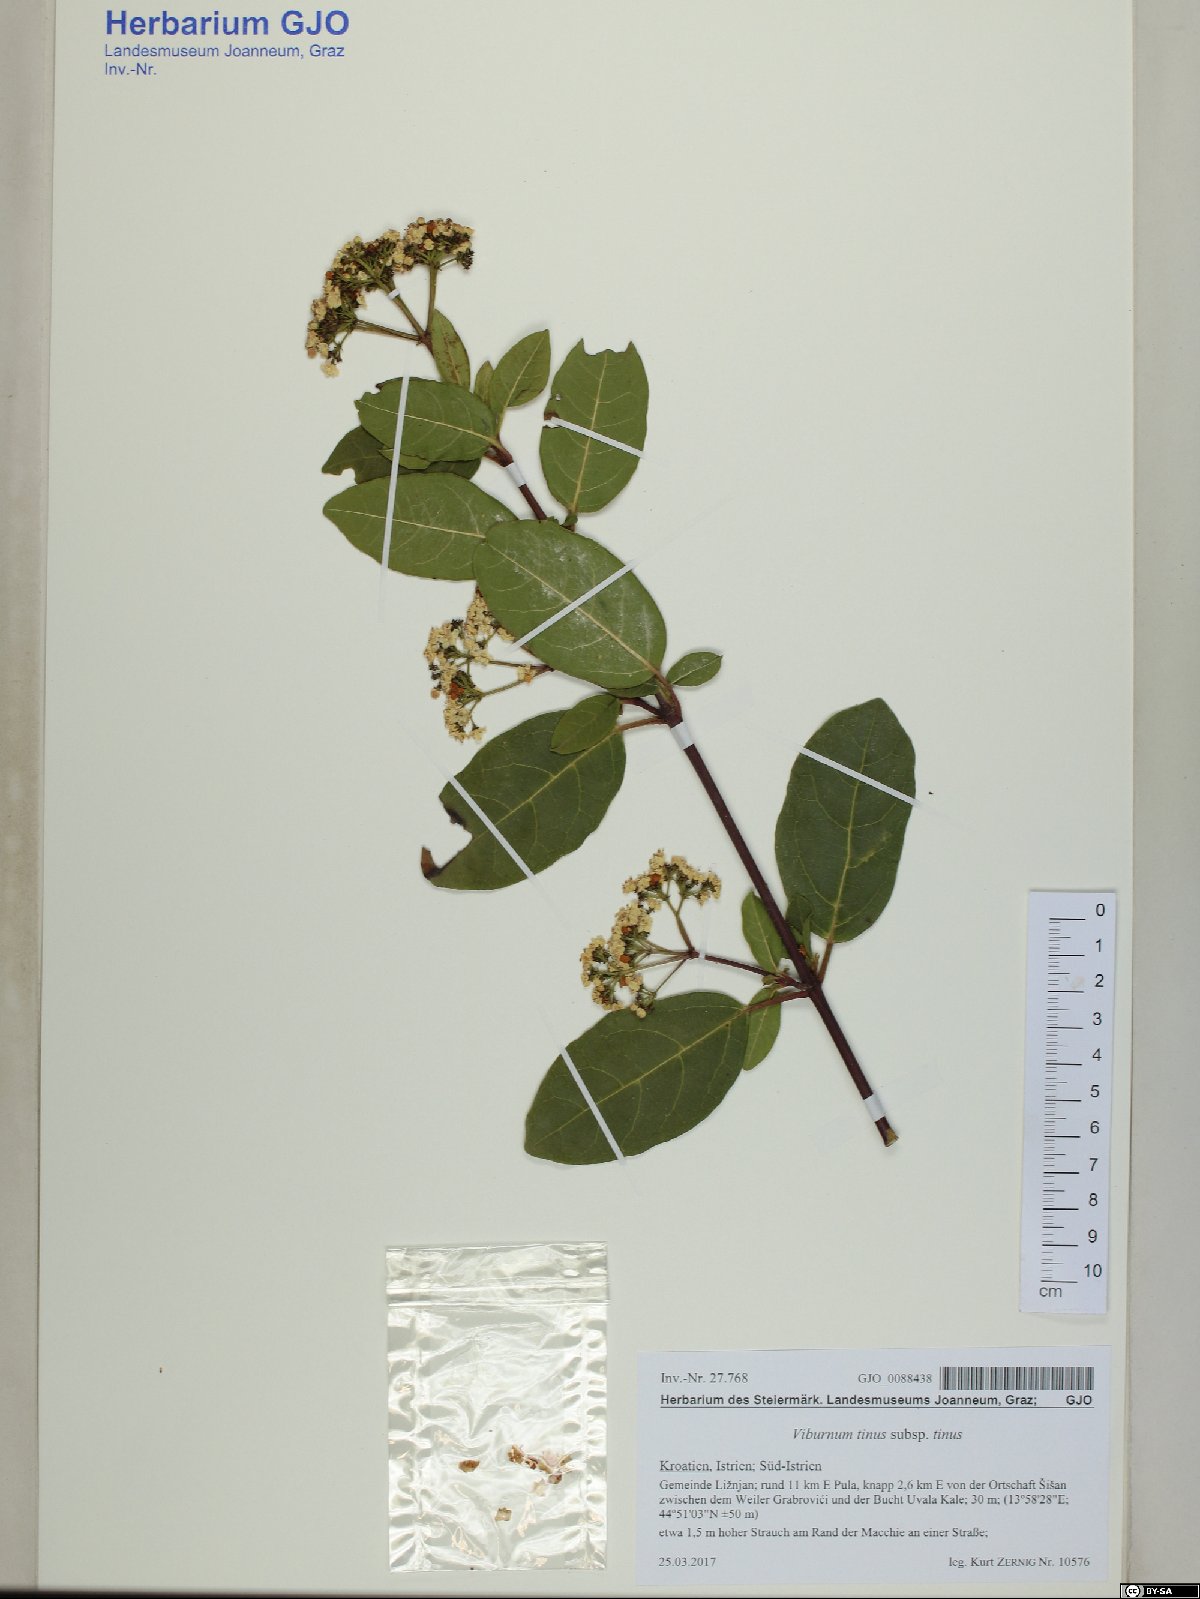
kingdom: Plantae
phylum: Tracheophyta
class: Magnoliopsida
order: Dipsacales
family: Viburnaceae
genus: Viburnum
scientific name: Viburnum tinus
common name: Laurustinus
